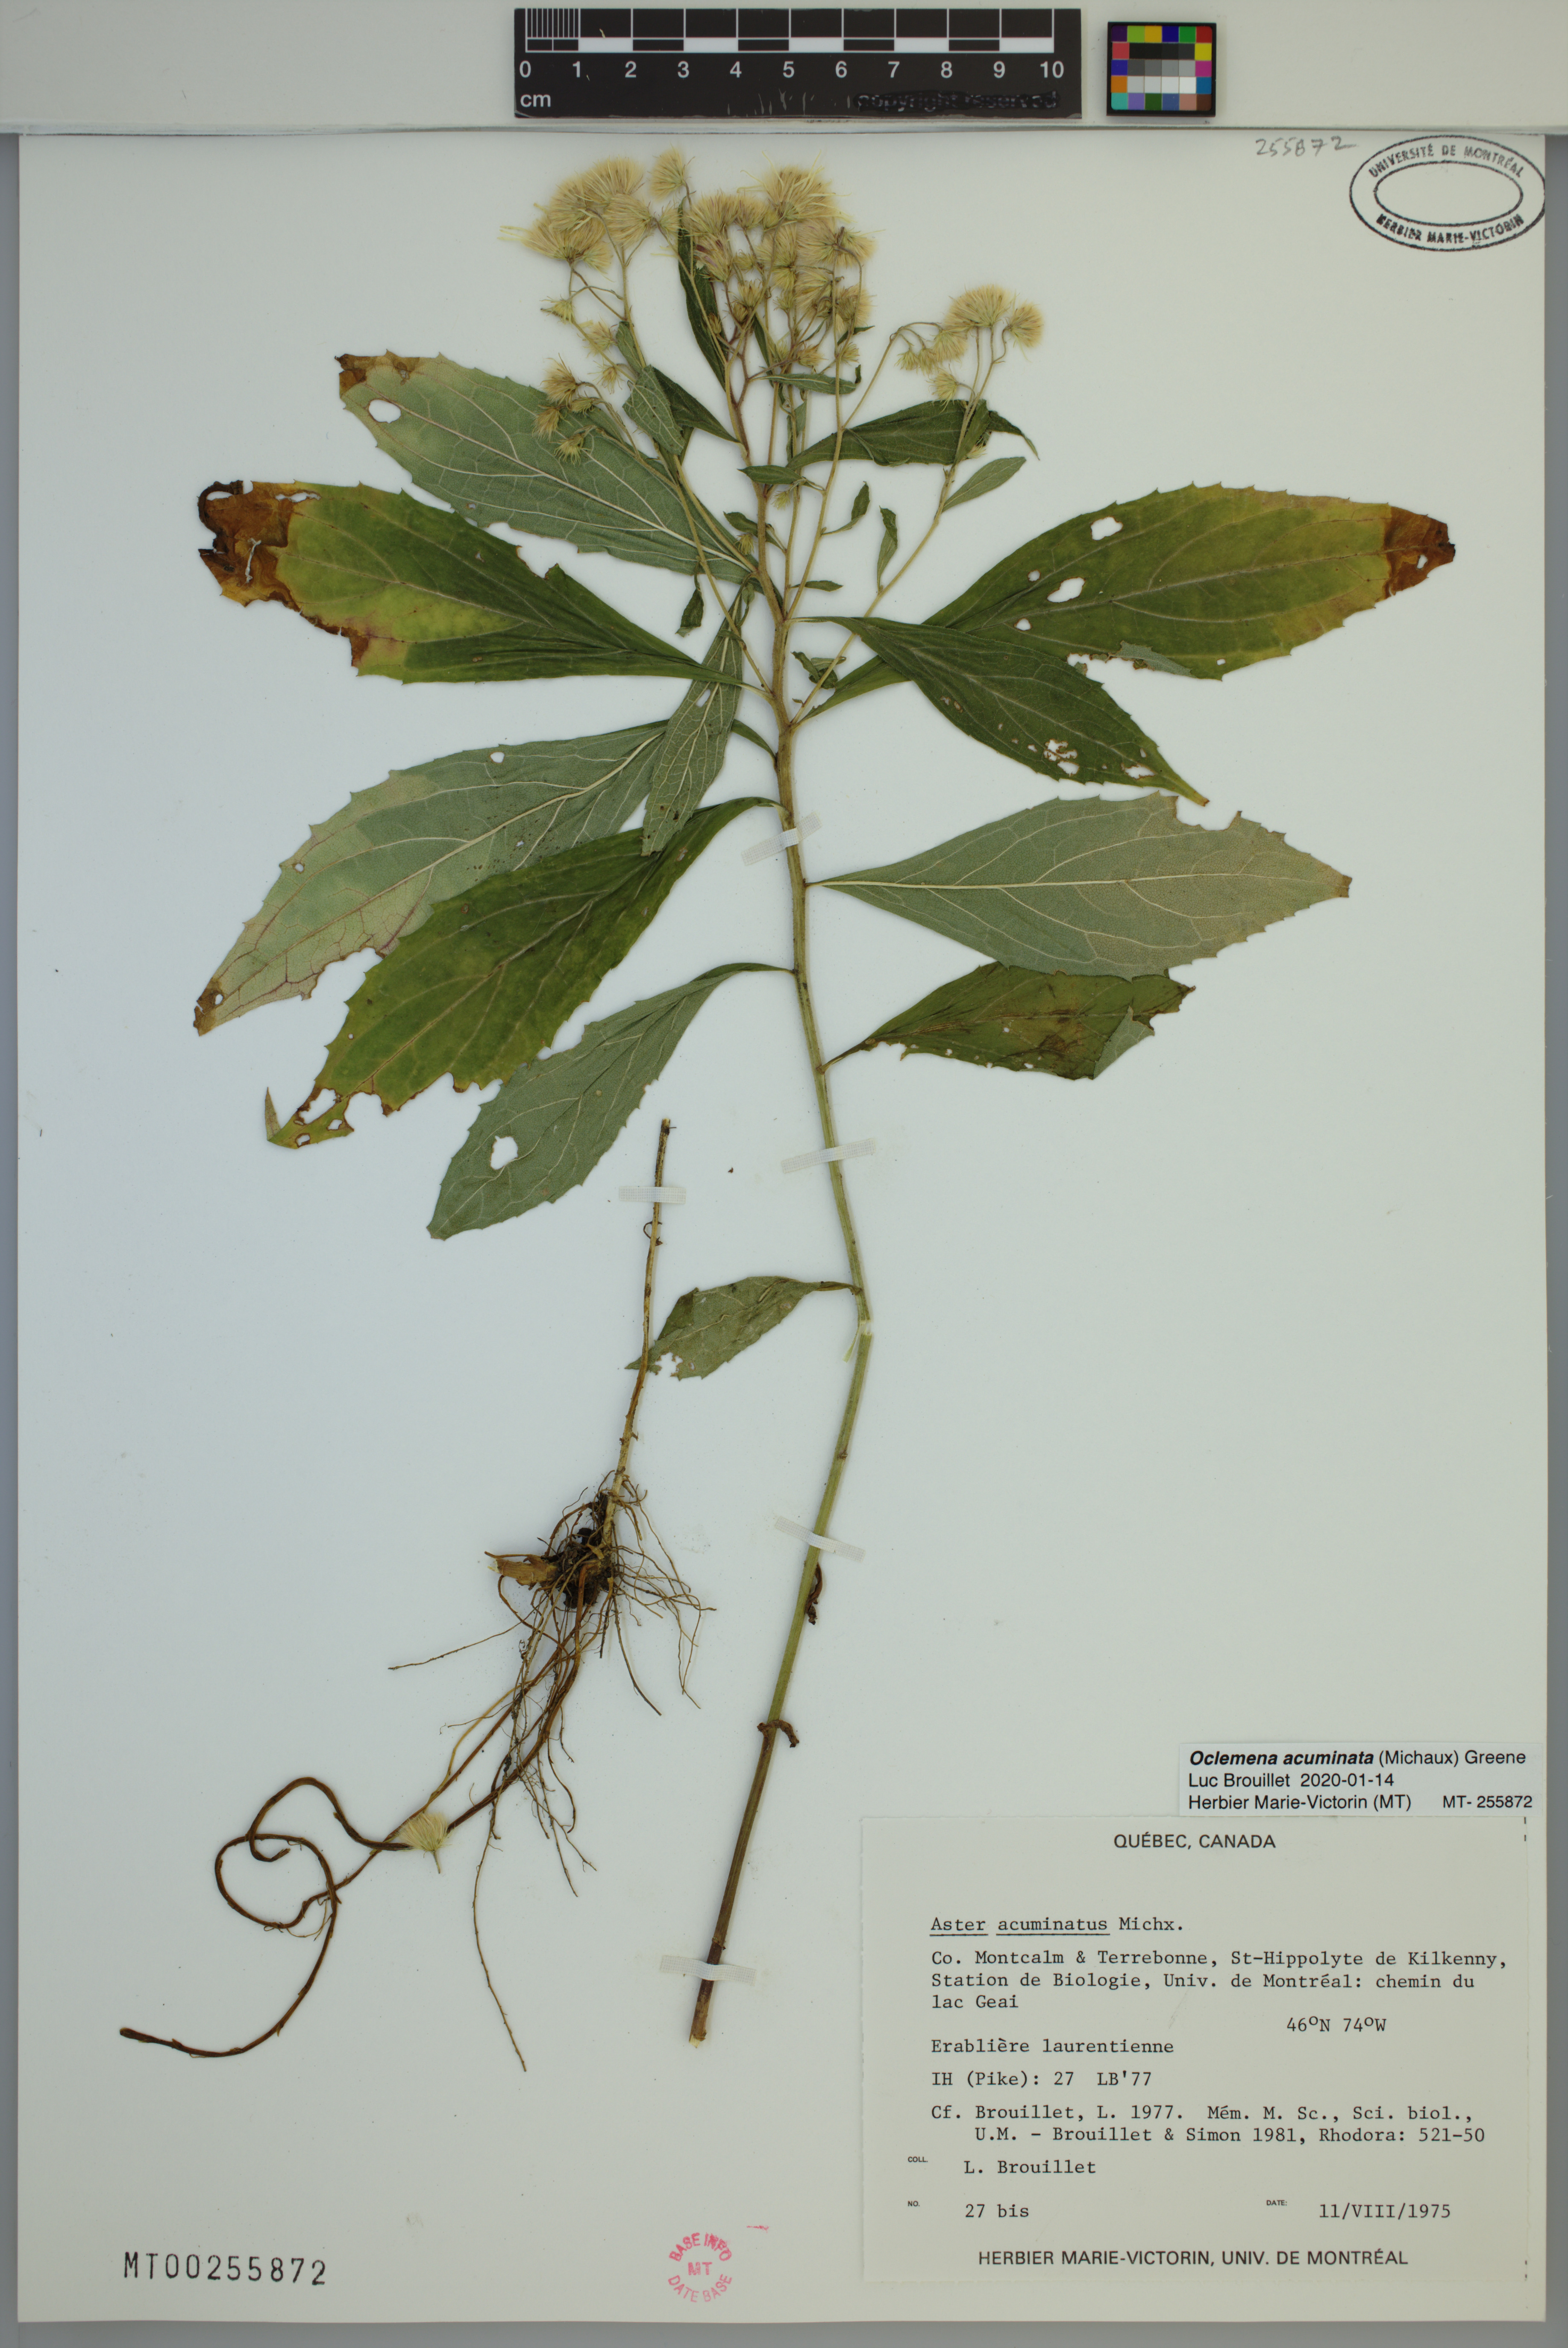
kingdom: Plantae
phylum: Tracheophyta
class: Magnoliopsida
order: Asterales
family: Asteraceae
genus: Oclemena
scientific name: Oclemena acuminata
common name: Mountain aster
